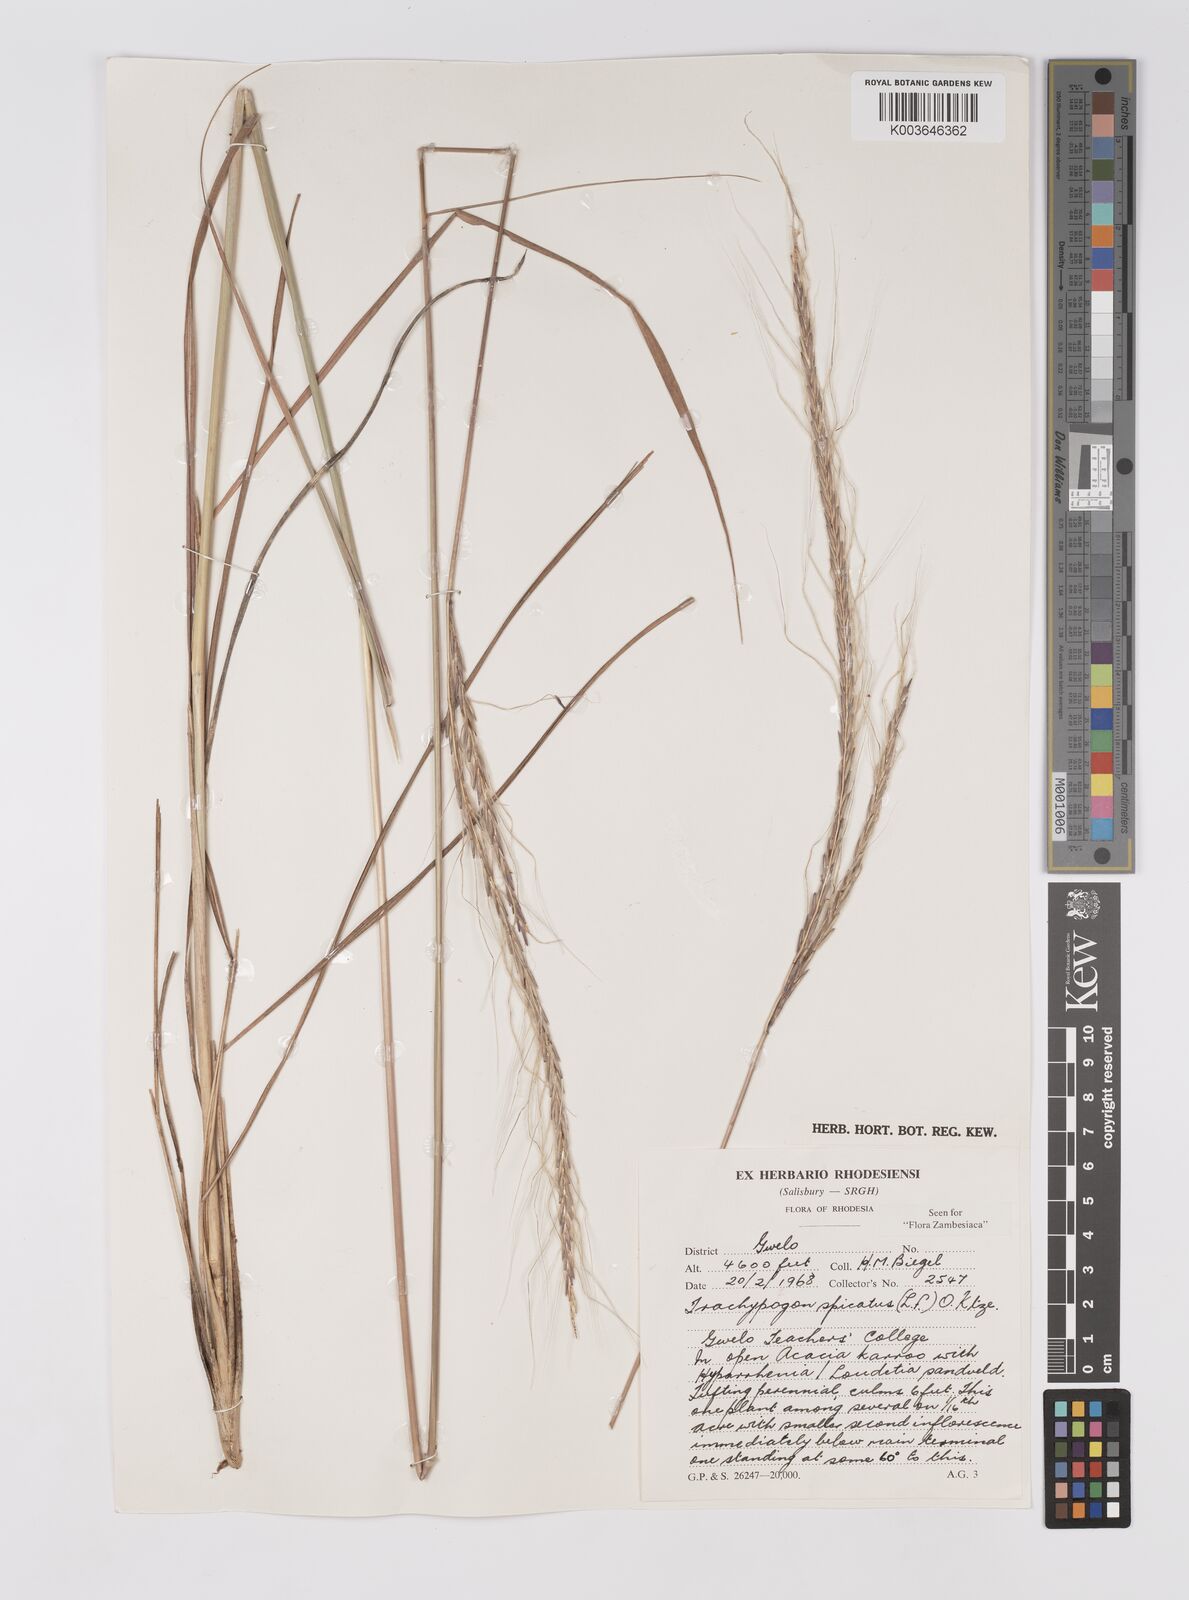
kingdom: Plantae
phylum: Tracheophyta
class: Liliopsida
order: Poales
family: Poaceae
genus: Trachypogon
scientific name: Trachypogon spicatus
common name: Crinkle-awn
